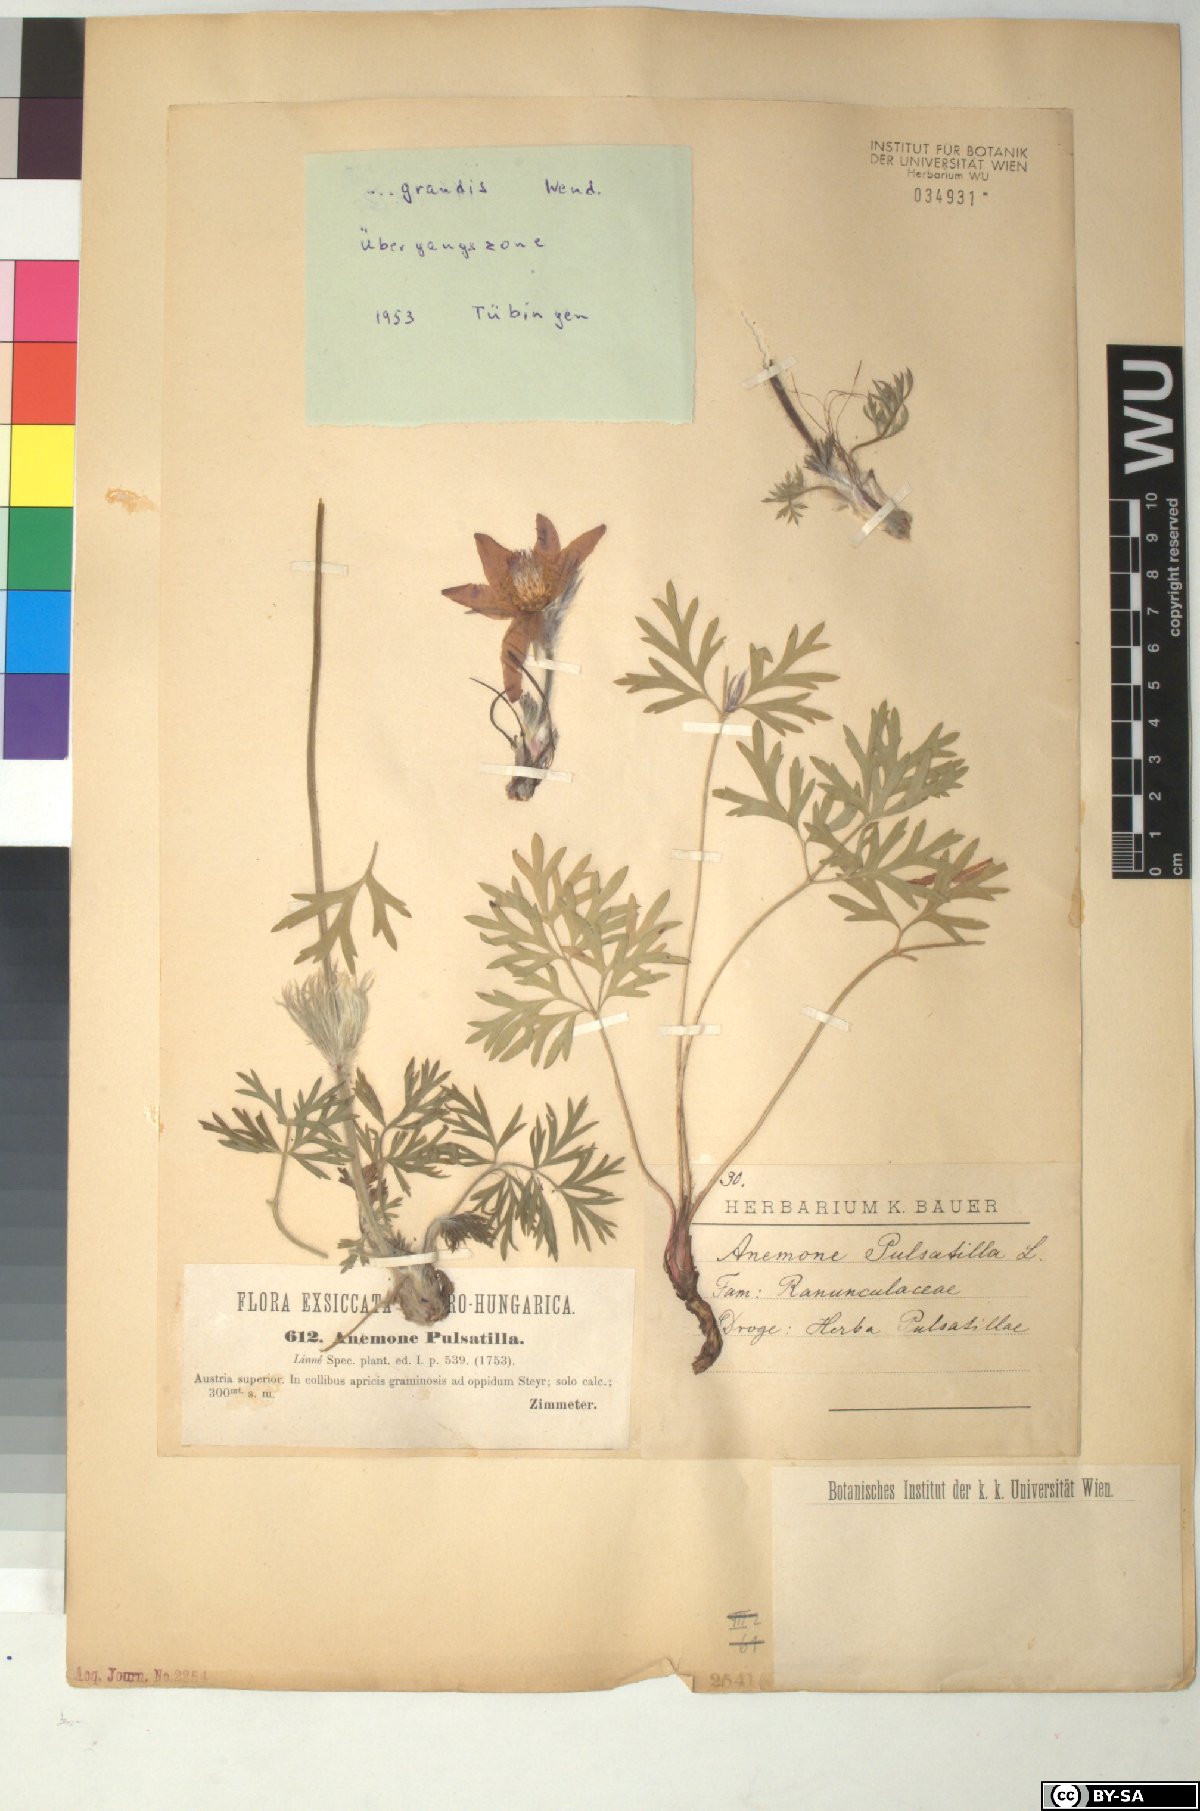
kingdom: Plantae
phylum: Tracheophyta
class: Magnoliopsida
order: Ranunculales
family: Ranunculaceae
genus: Pulsatilla
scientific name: Pulsatilla grandis
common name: Greater pasque flower
